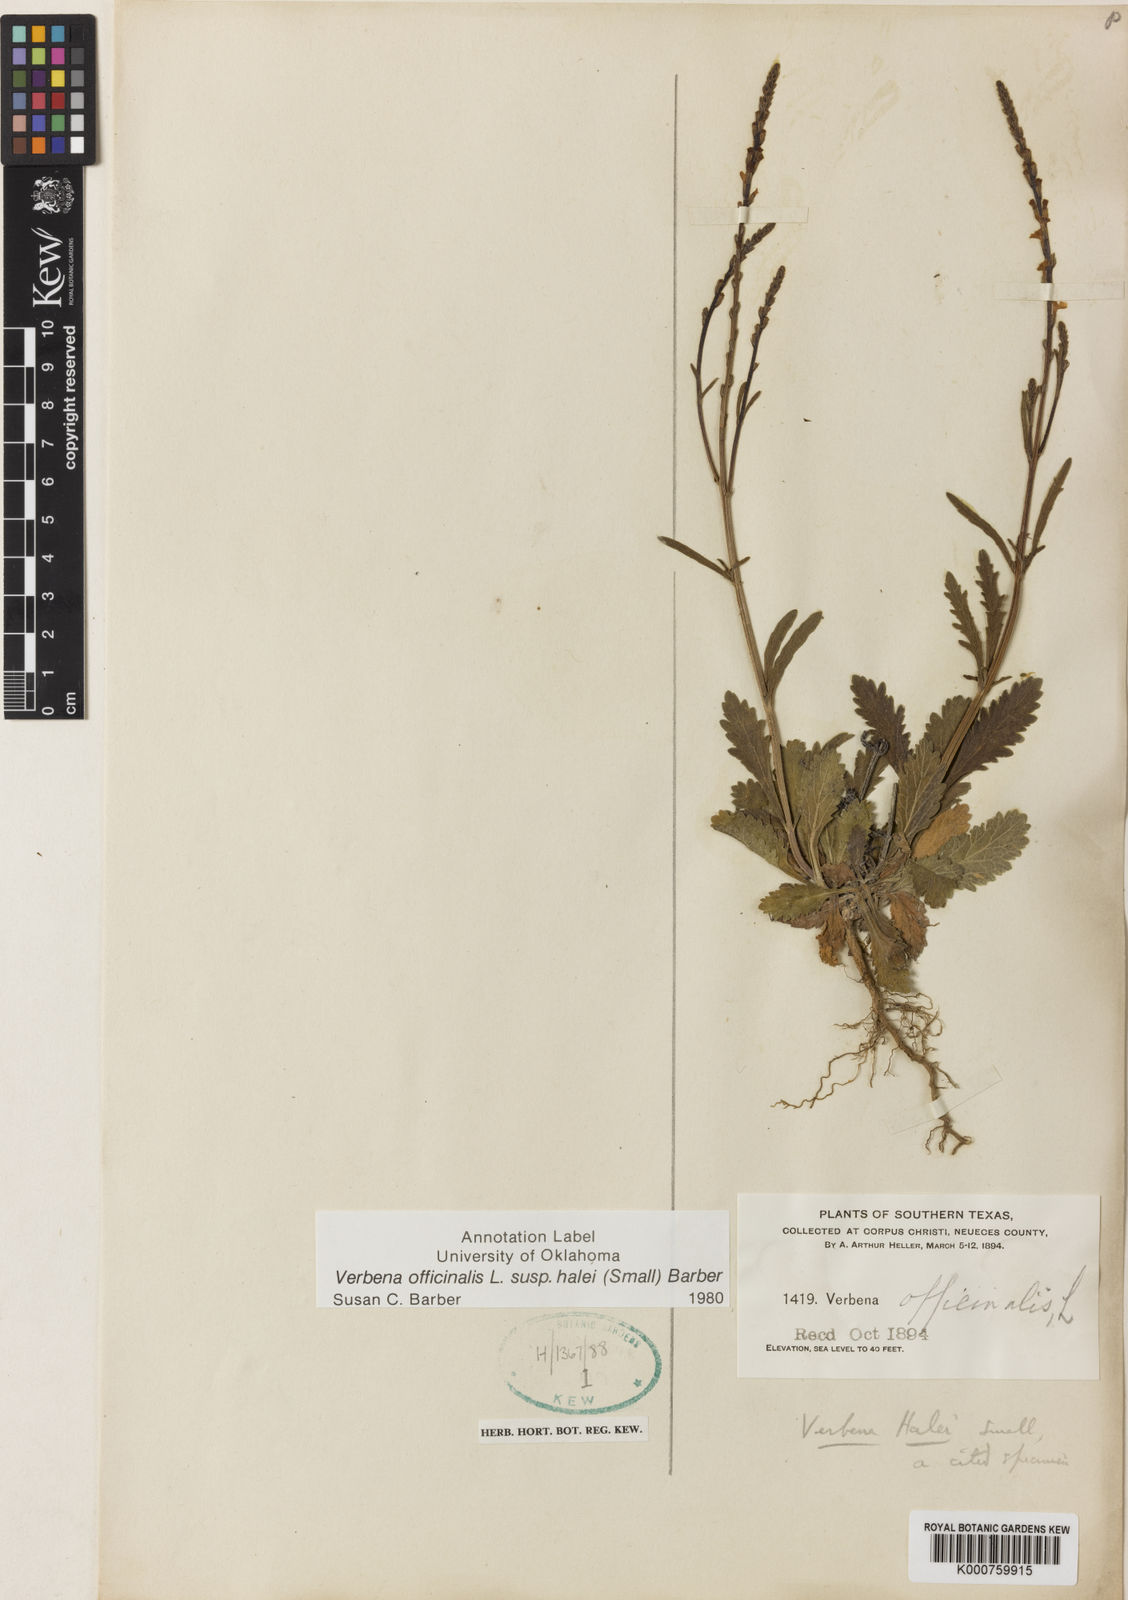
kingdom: Plantae
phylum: Tracheophyta
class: Magnoliopsida
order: Lamiales
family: Verbenaceae
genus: Verbena
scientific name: Verbena halei
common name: Texas vervain
